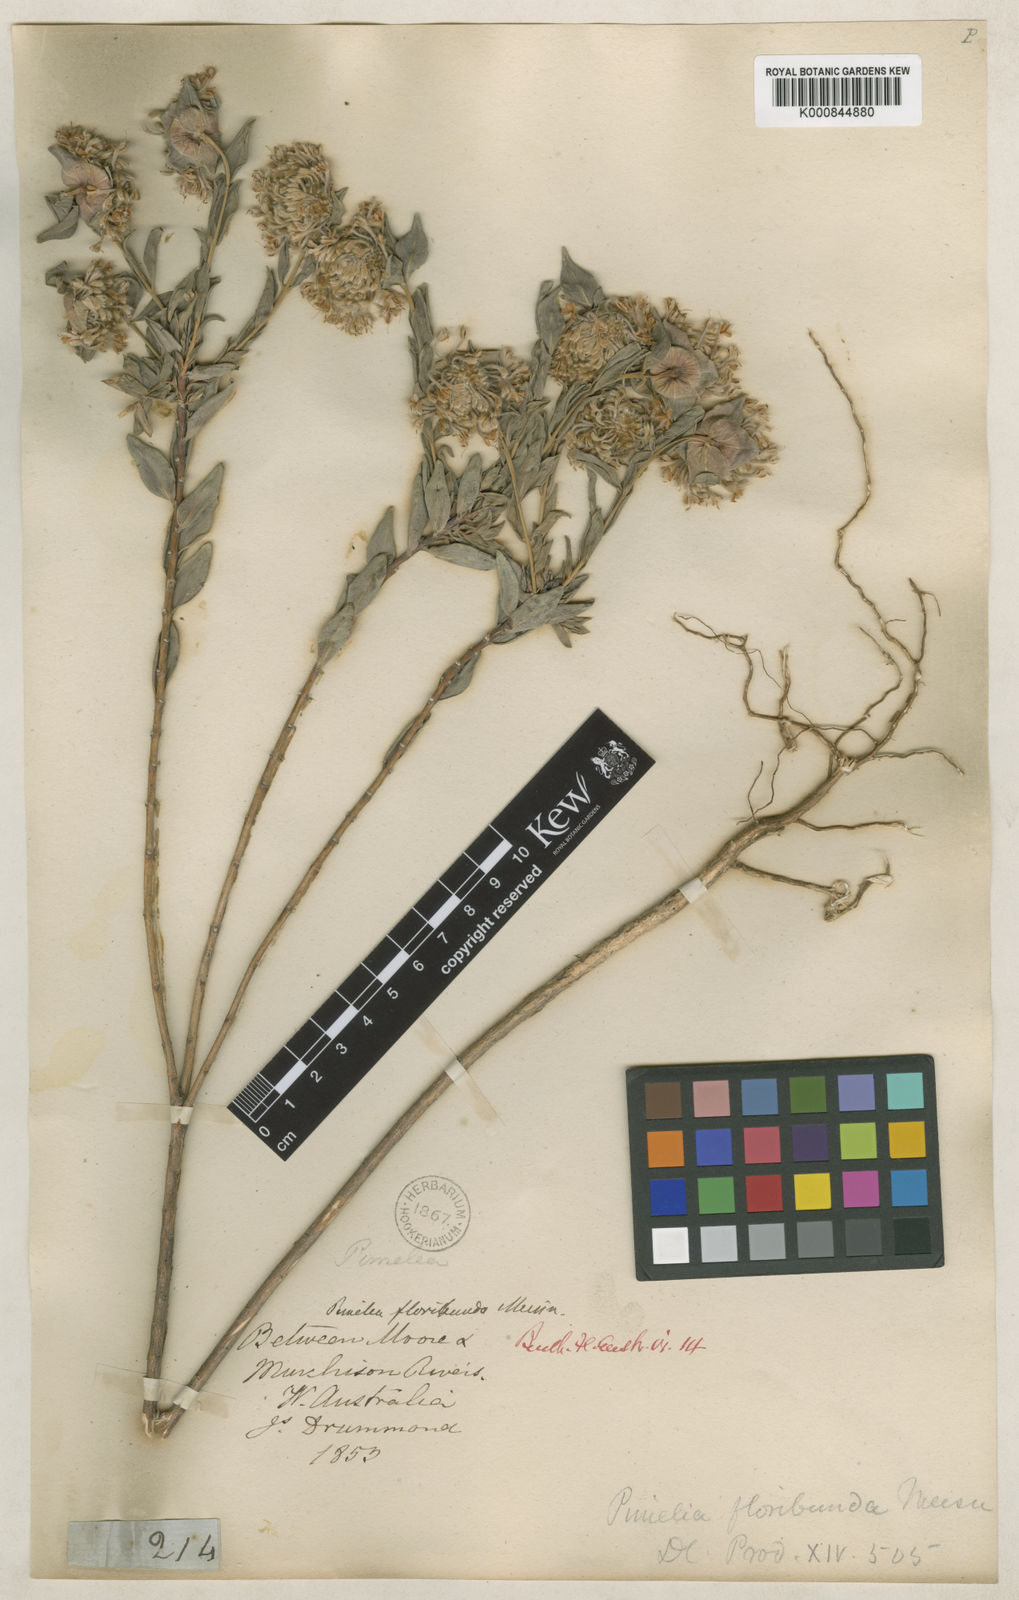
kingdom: Plantae
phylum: Tracheophyta
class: Magnoliopsida
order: Malvales
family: Thymelaeaceae
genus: Pimelea
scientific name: Pimelea floribunda
